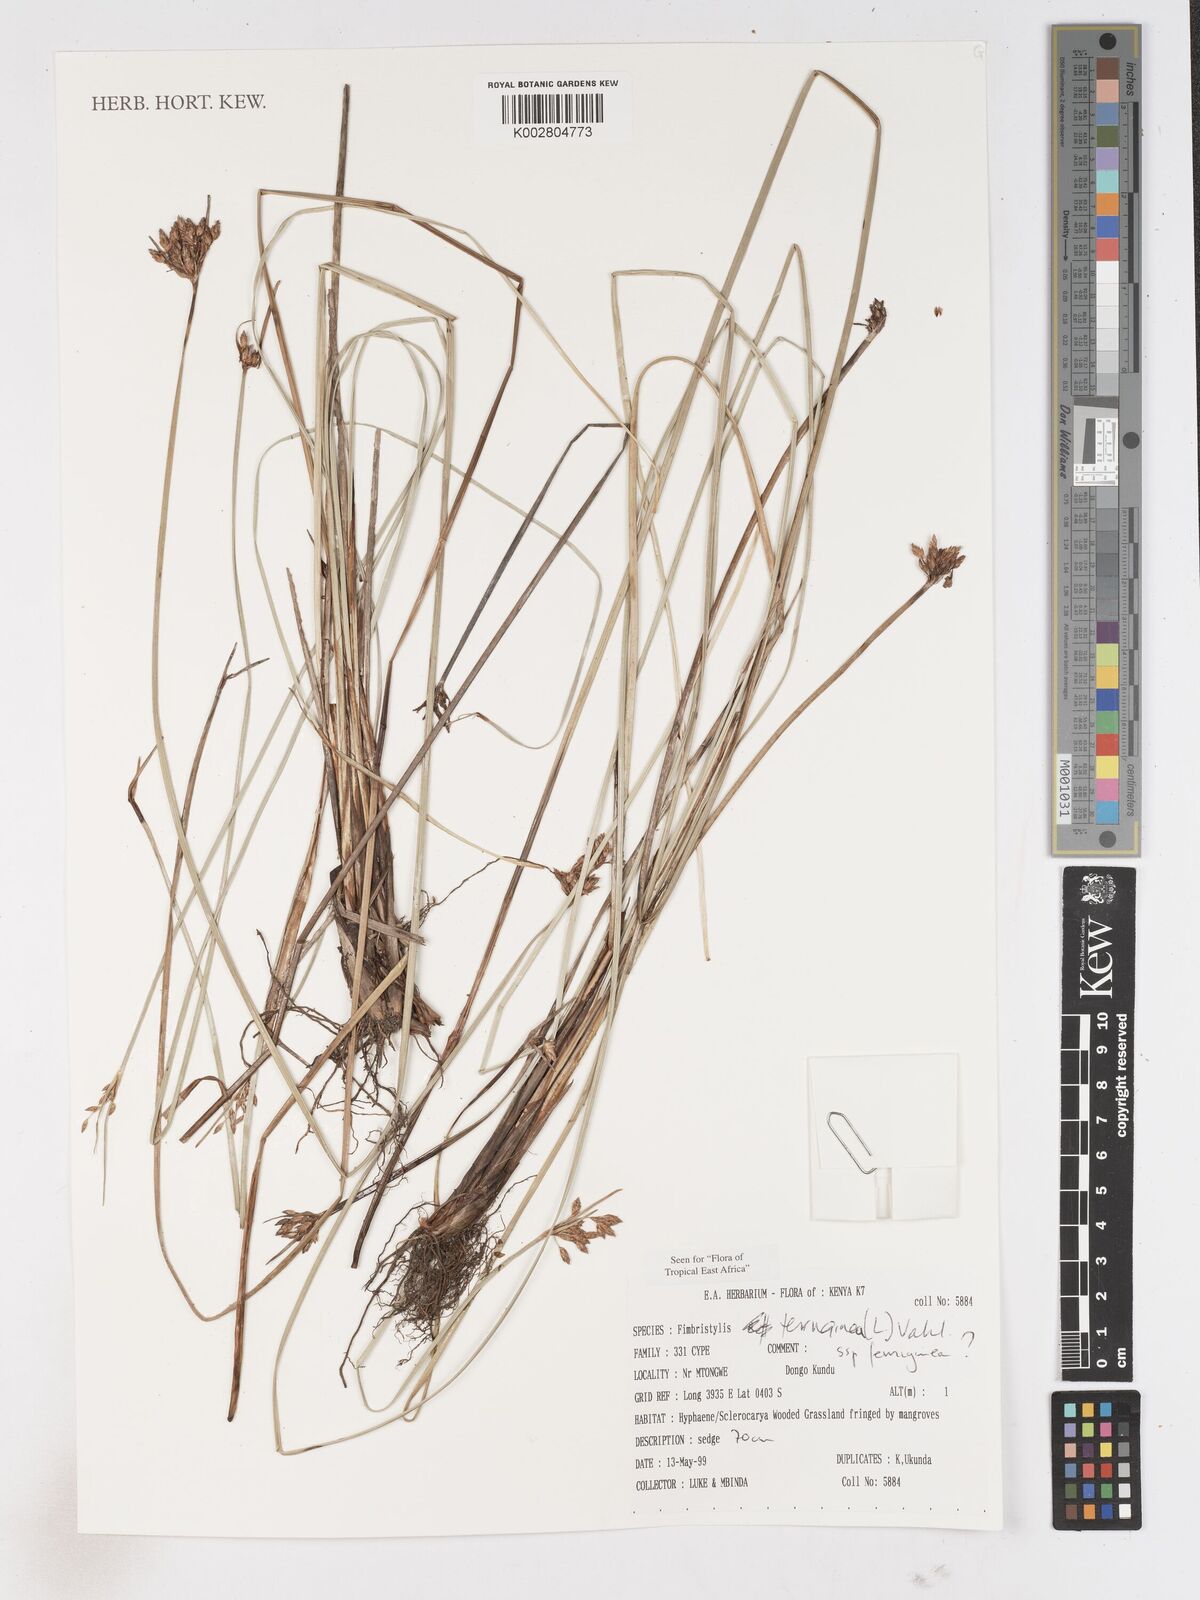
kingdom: Plantae
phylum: Tracheophyta
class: Liliopsida
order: Poales
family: Cyperaceae
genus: Fimbristylis
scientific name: Fimbristylis ferruginea
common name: West indian fimbry
